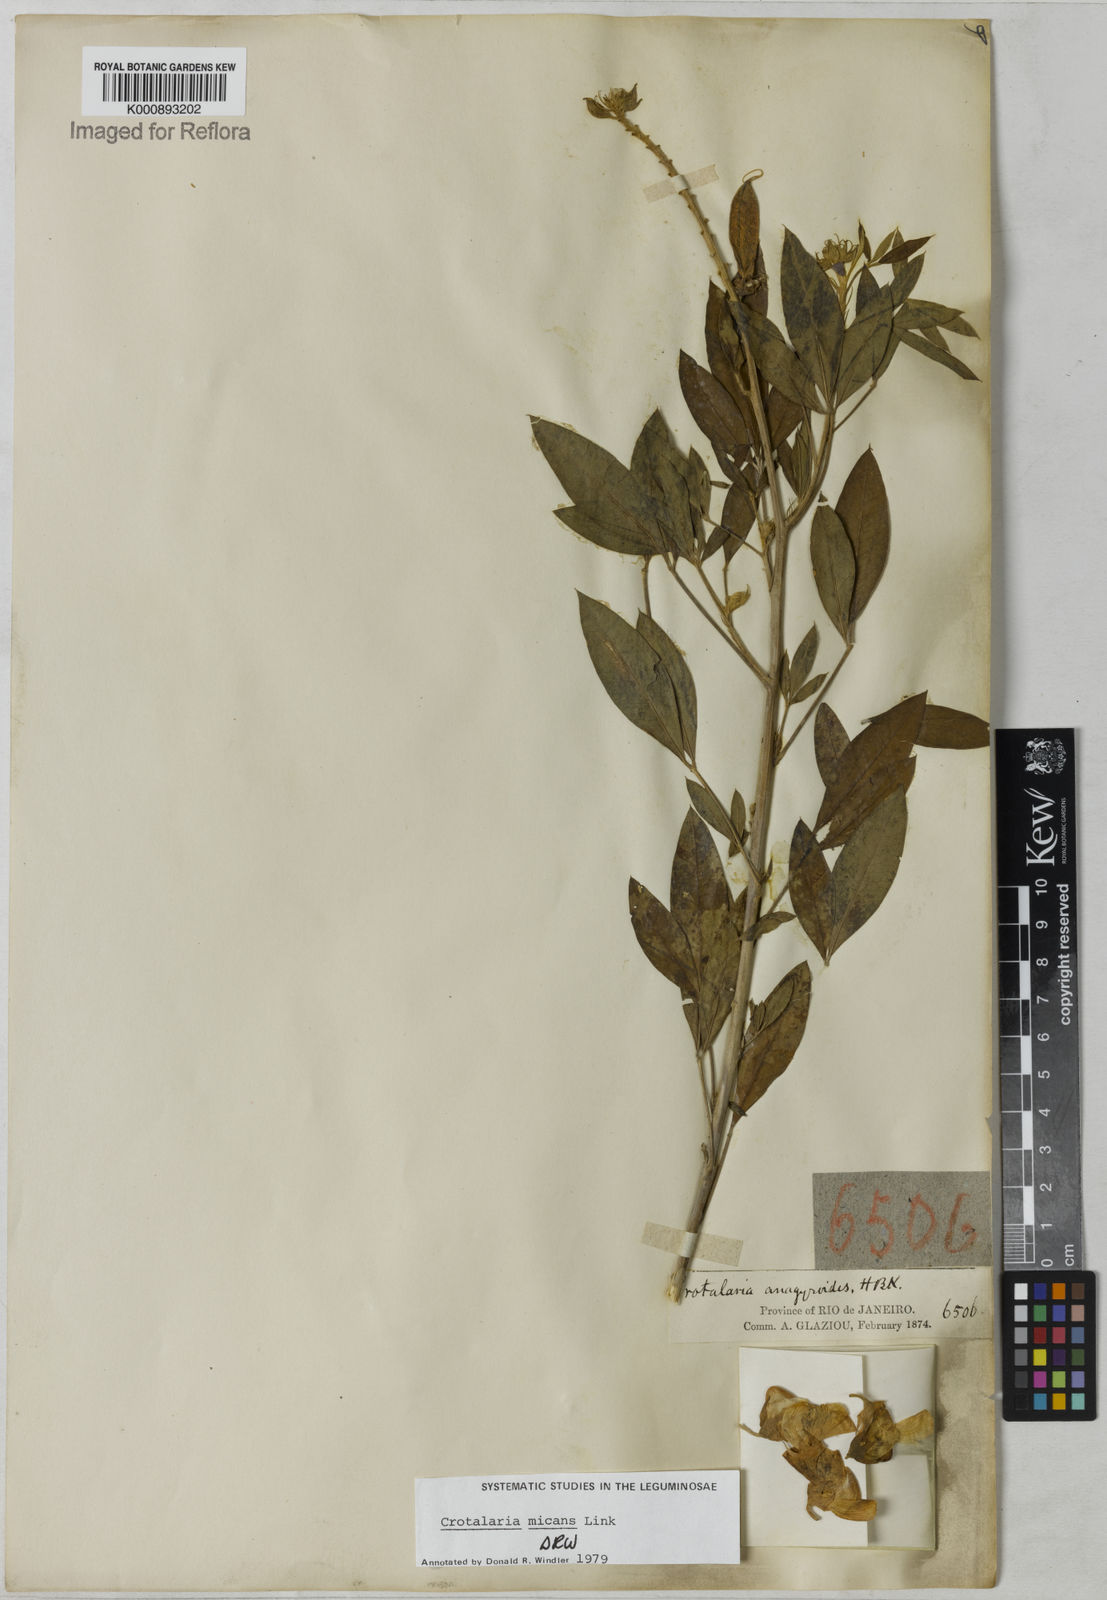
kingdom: Plantae
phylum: Tracheophyta
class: Magnoliopsida
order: Fabales
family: Fabaceae
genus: Crotalaria
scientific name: Crotalaria micans
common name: Caracas rattlebox
